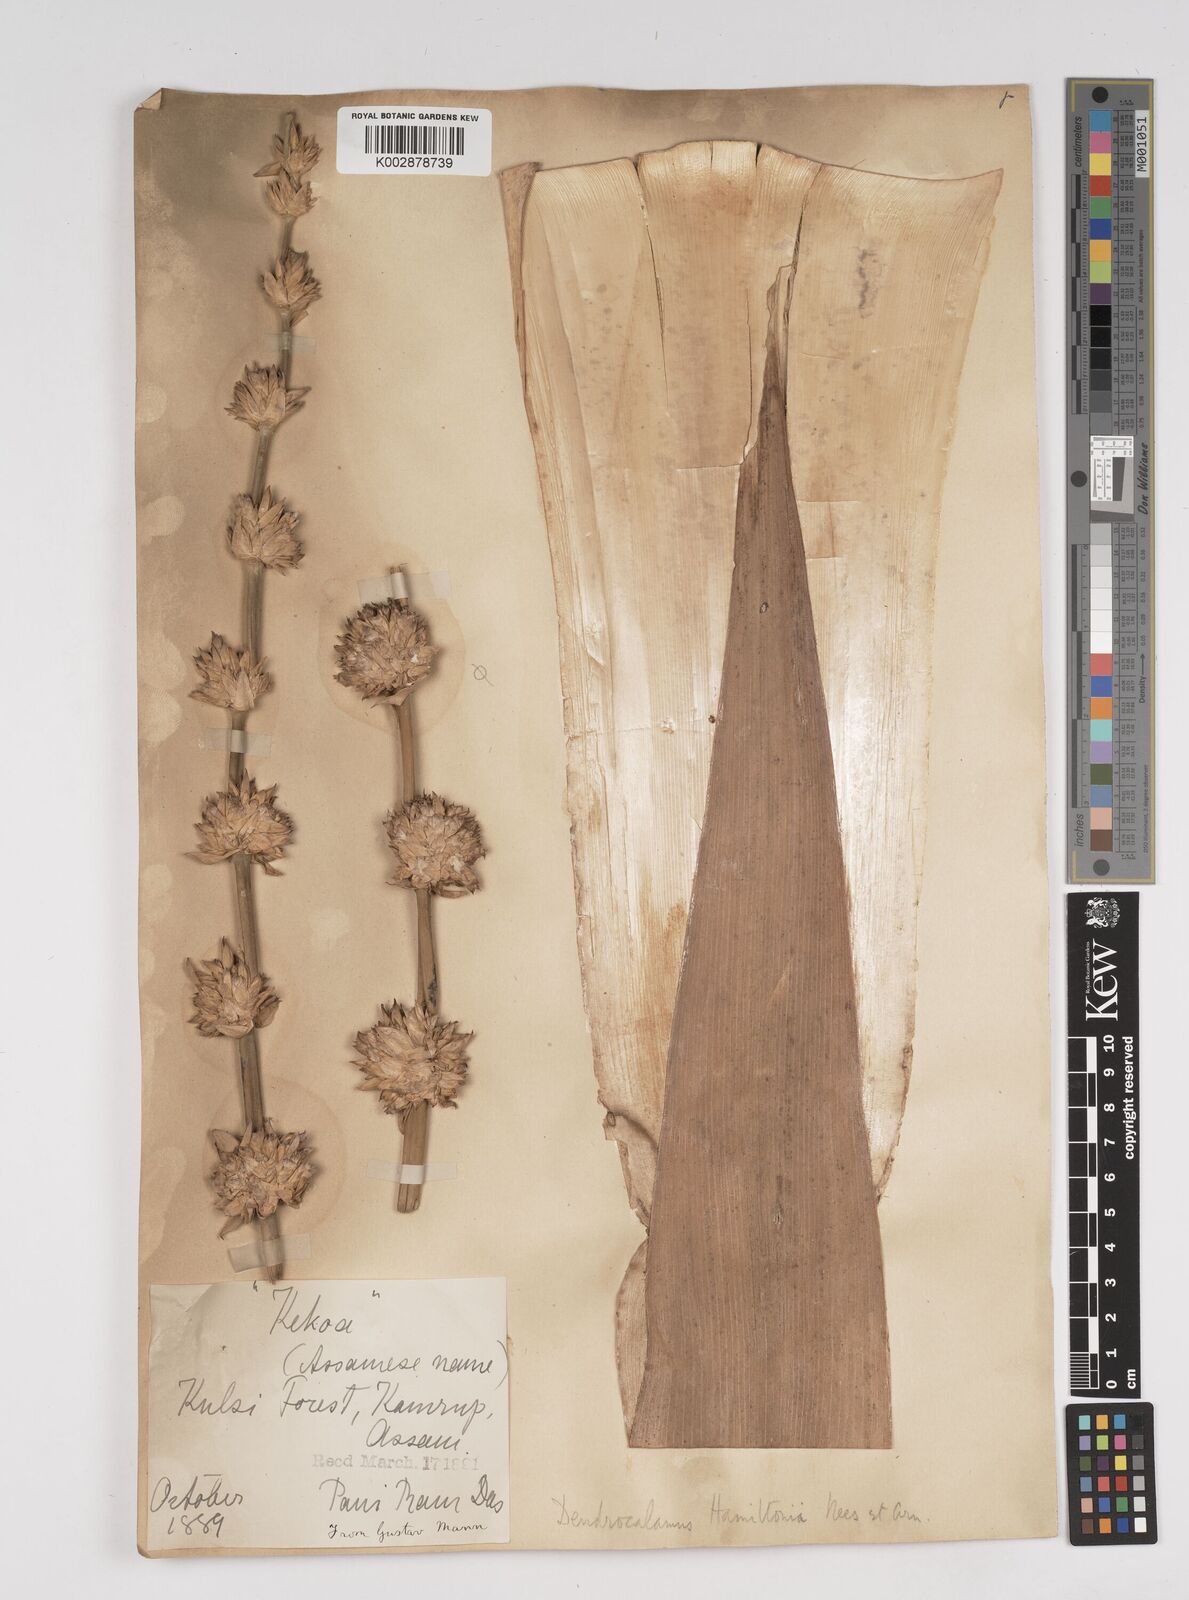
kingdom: Plantae
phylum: Tracheophyta
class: Liliopsida
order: Poales
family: Poaceae
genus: Dendrocalamus
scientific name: Dendrocalamus hamiltonii
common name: Tama bamboo
